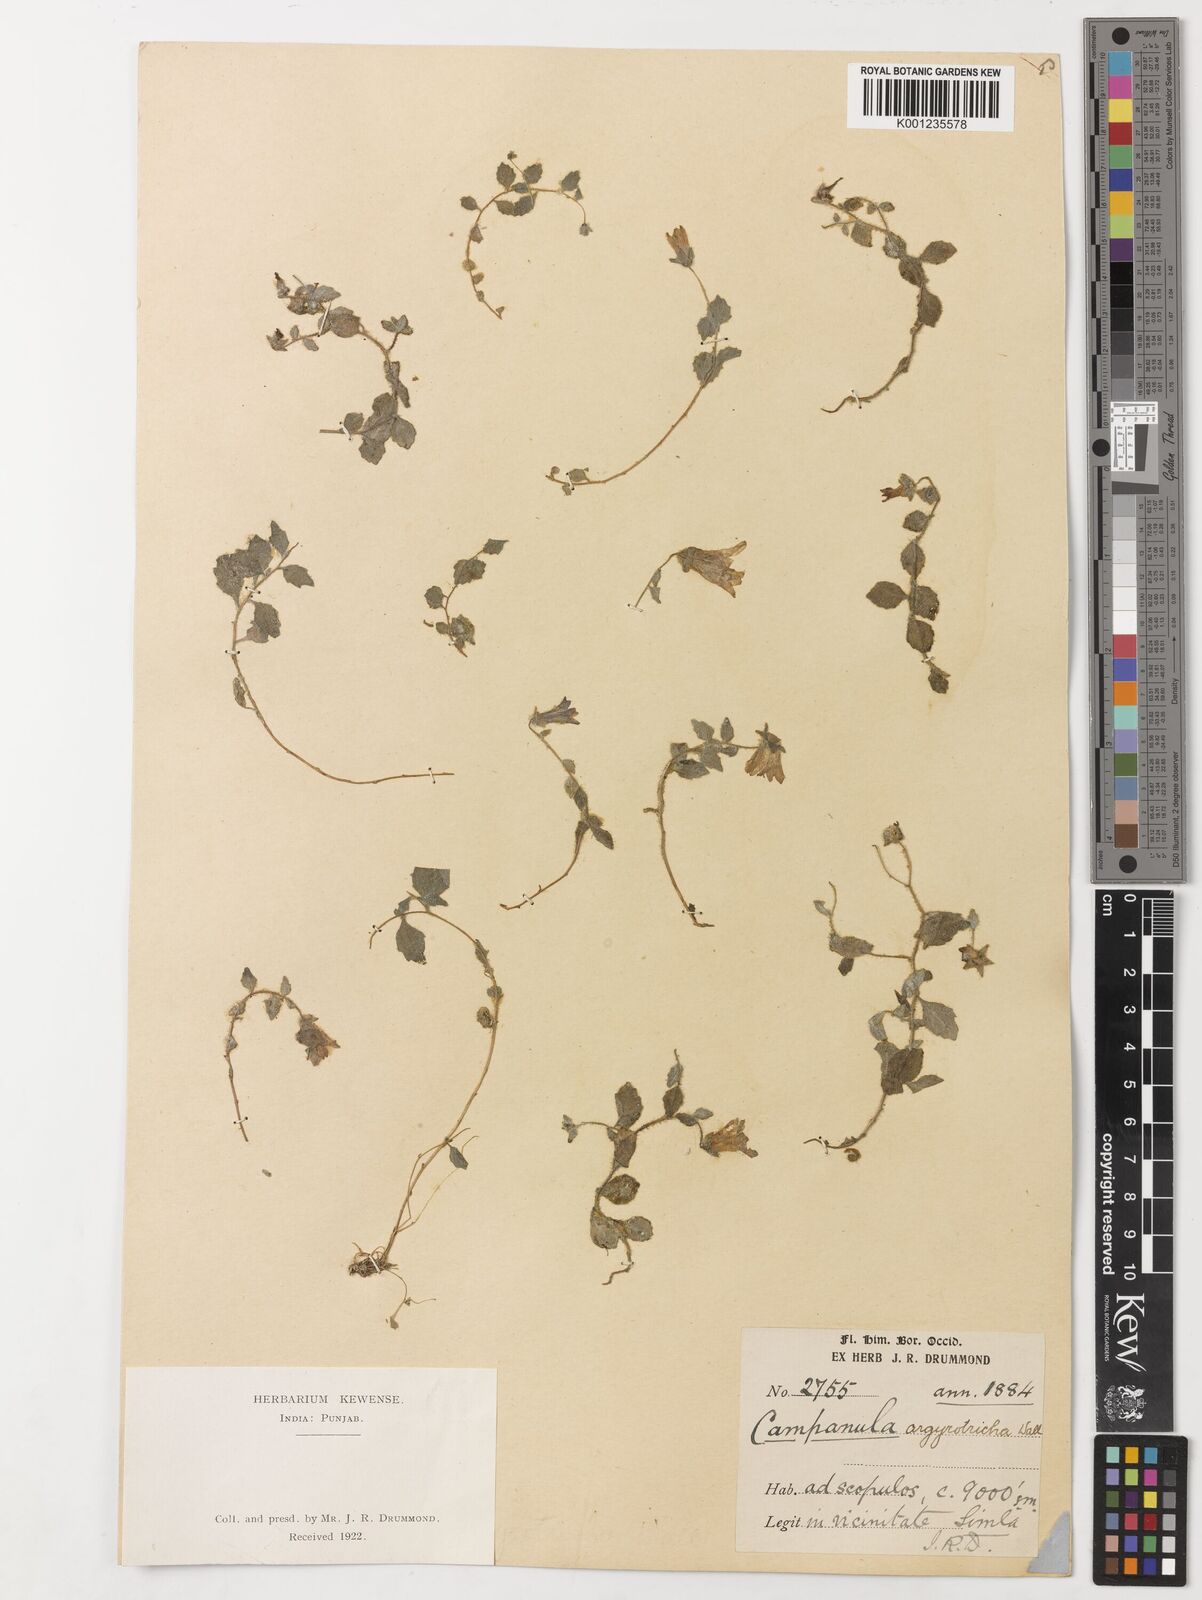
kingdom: Plantae
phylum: Tracheophyta
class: Magnoliopsida
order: Asterales
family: Campanulaceae
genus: Campanula
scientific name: Campanula argyrotricha
